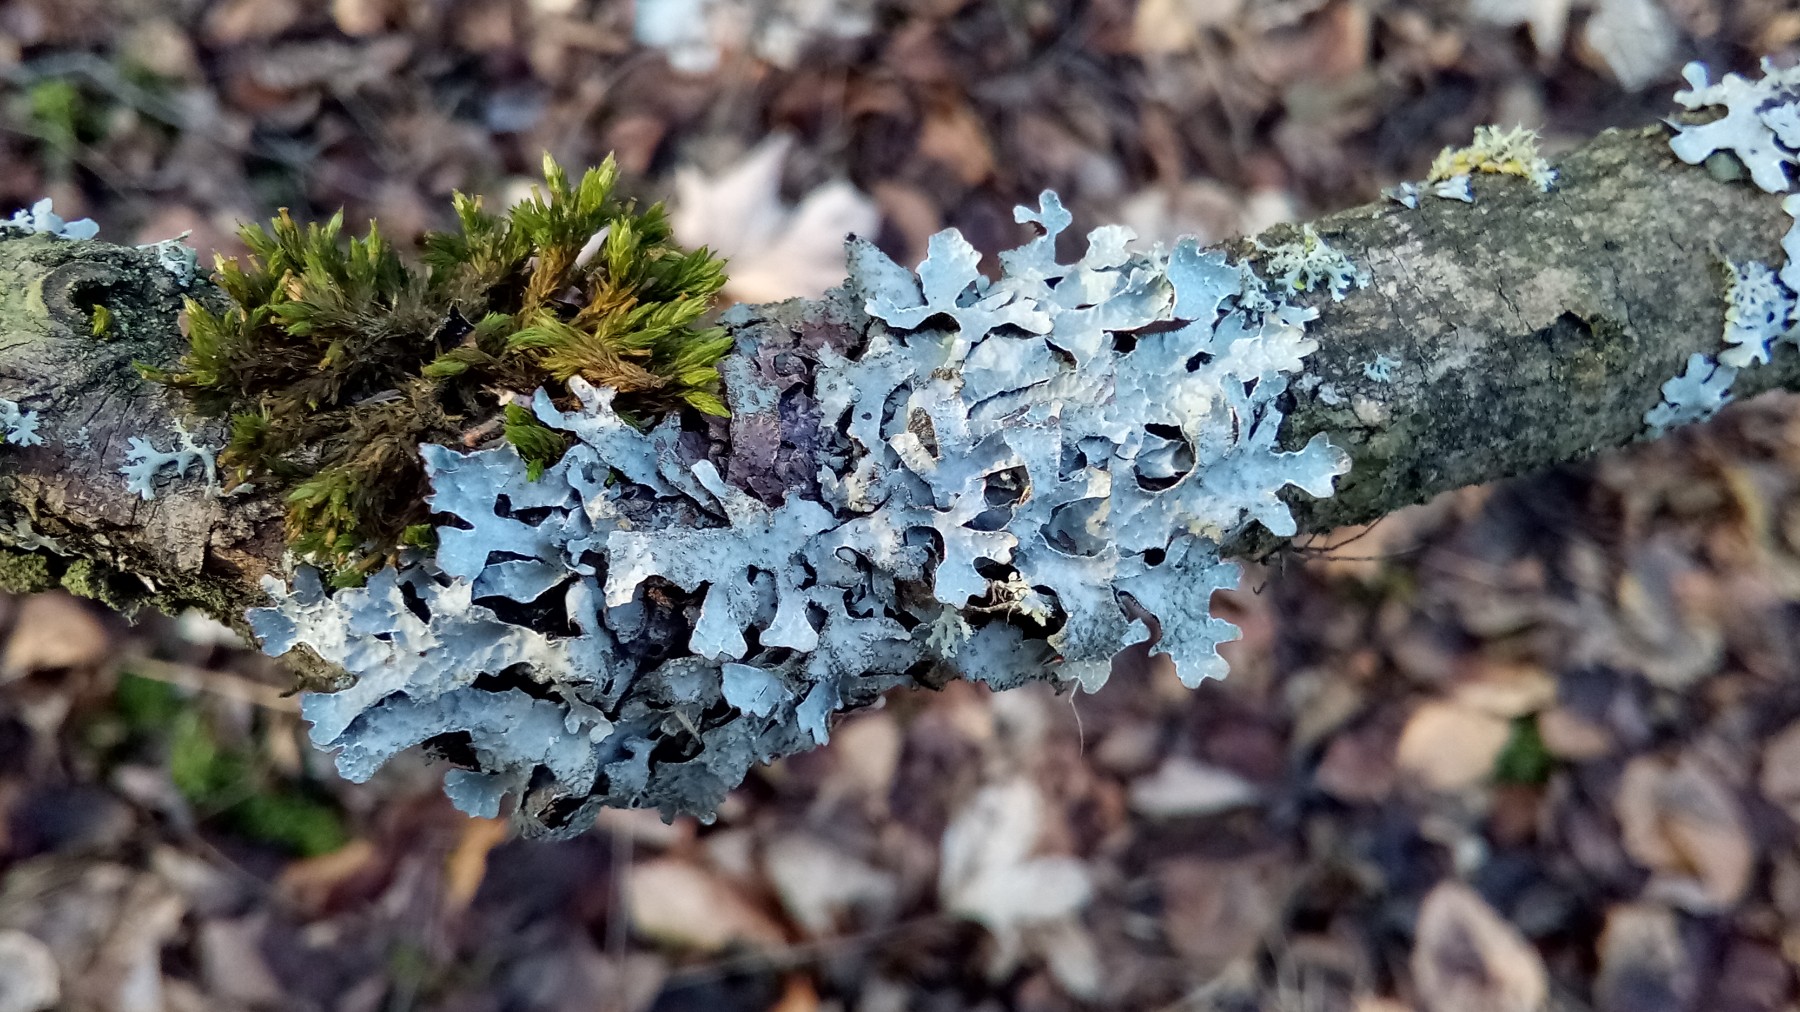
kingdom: Fungi
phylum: Ascomycota
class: Lecanoromycetes
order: Lecanorales
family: Parmeliaceae
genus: Parmelia
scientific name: Parmelia sulcata
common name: rynket skållav
